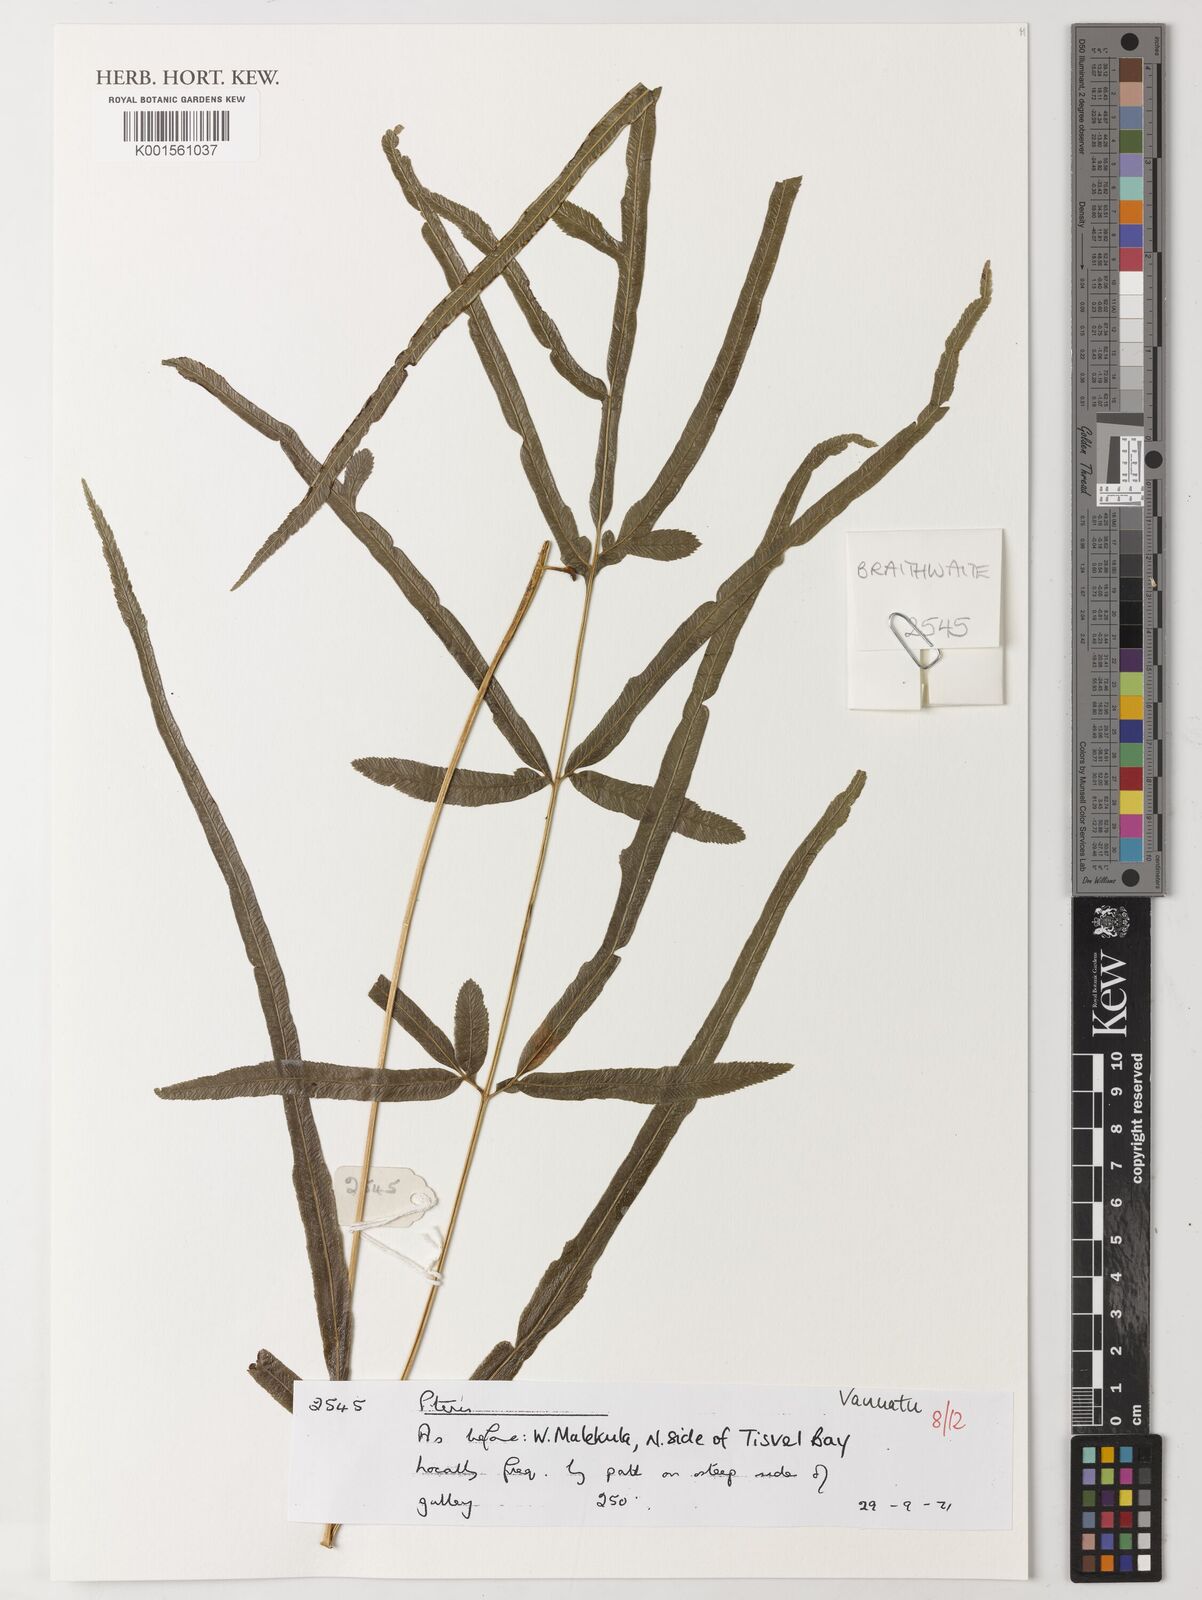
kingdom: Plantae
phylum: Tracheophyta
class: Polypodiopsida
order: Polypodiales
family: Pteridaceae
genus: Pteris
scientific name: Pteris
